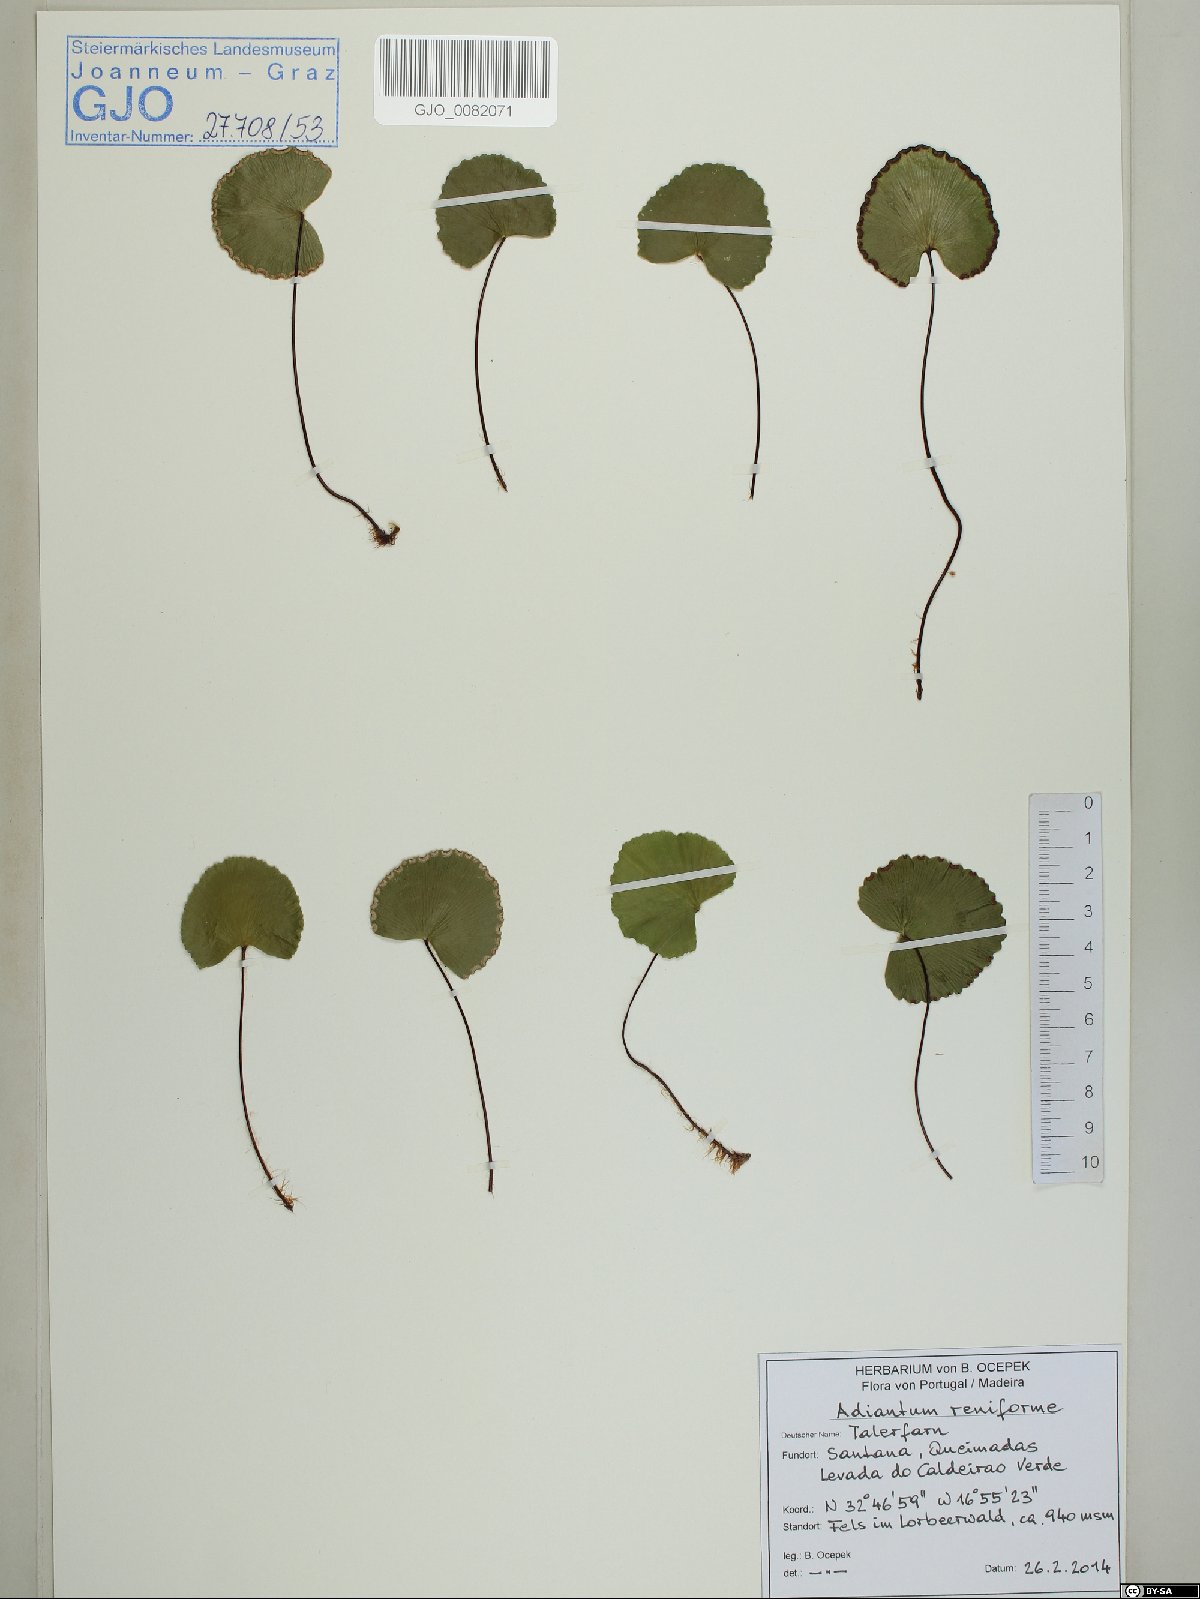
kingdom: Plantae
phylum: Tracheophyta
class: Polypodiopsida
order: Polypodiales
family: Pteridaceae
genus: Adiantum
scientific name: Adiantum reniforme
